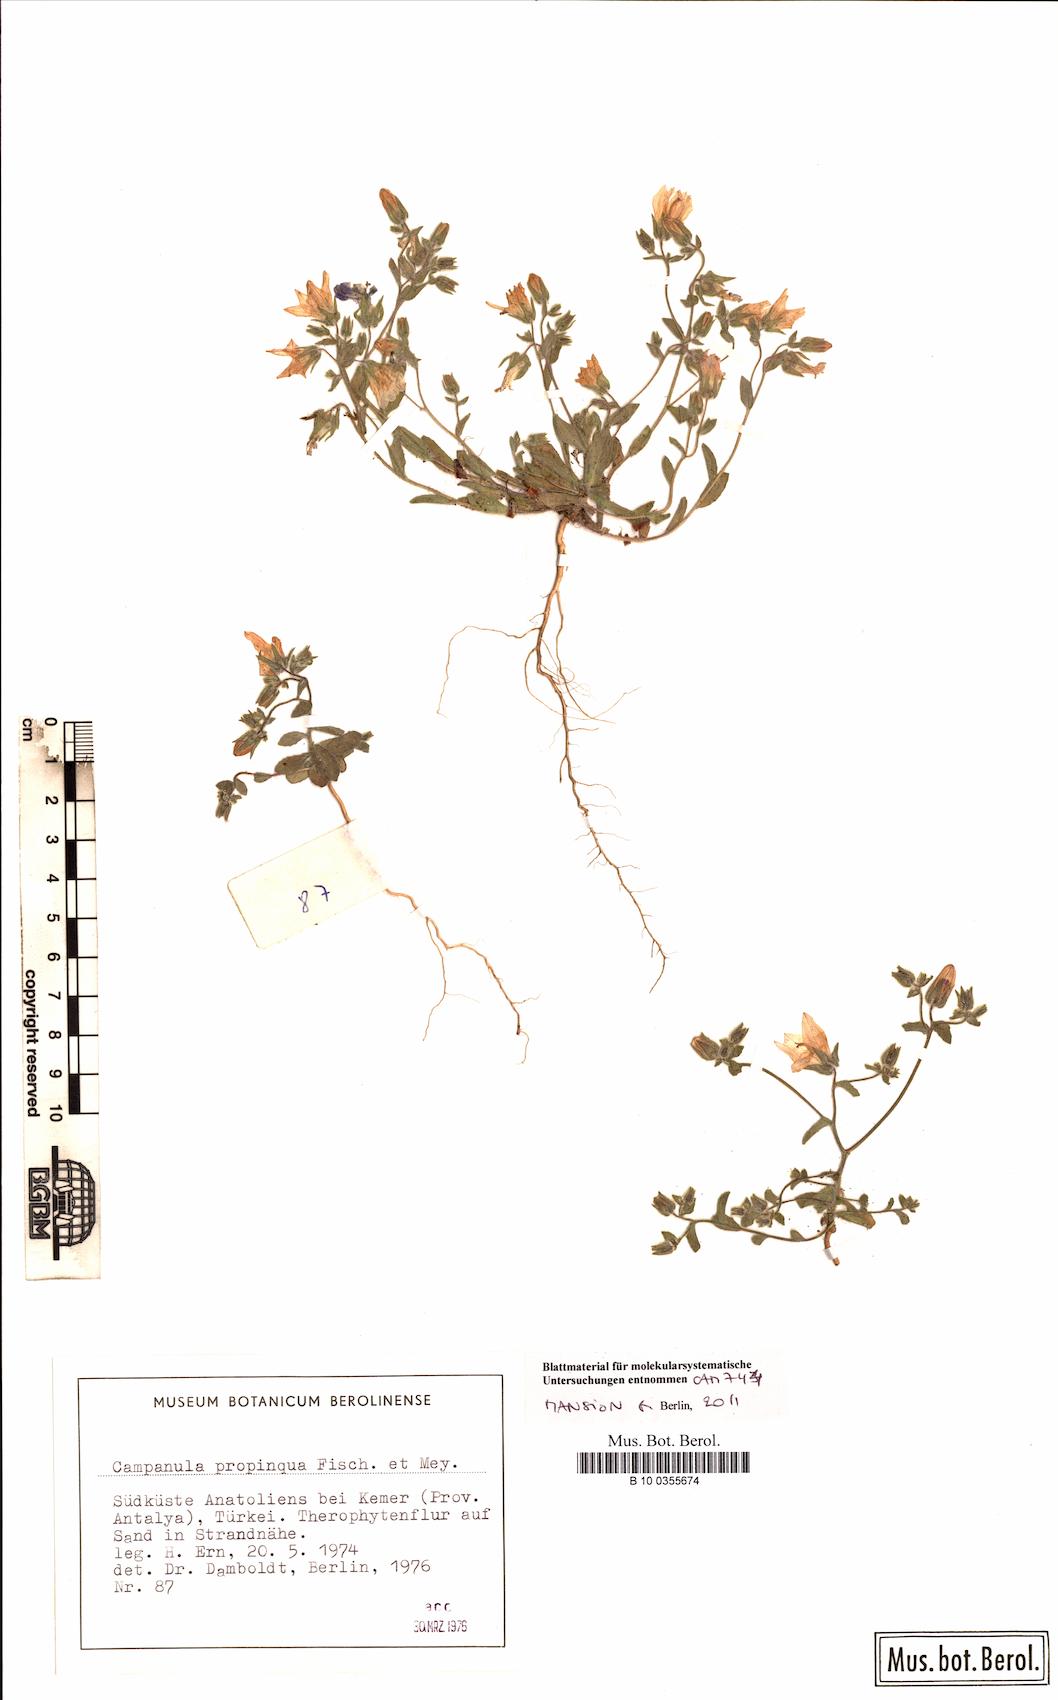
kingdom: Plantae
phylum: Tracheophyta
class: Magnoliopsida
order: Asterales
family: Campanulaceae
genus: Campanula
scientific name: Campanula propinqua
